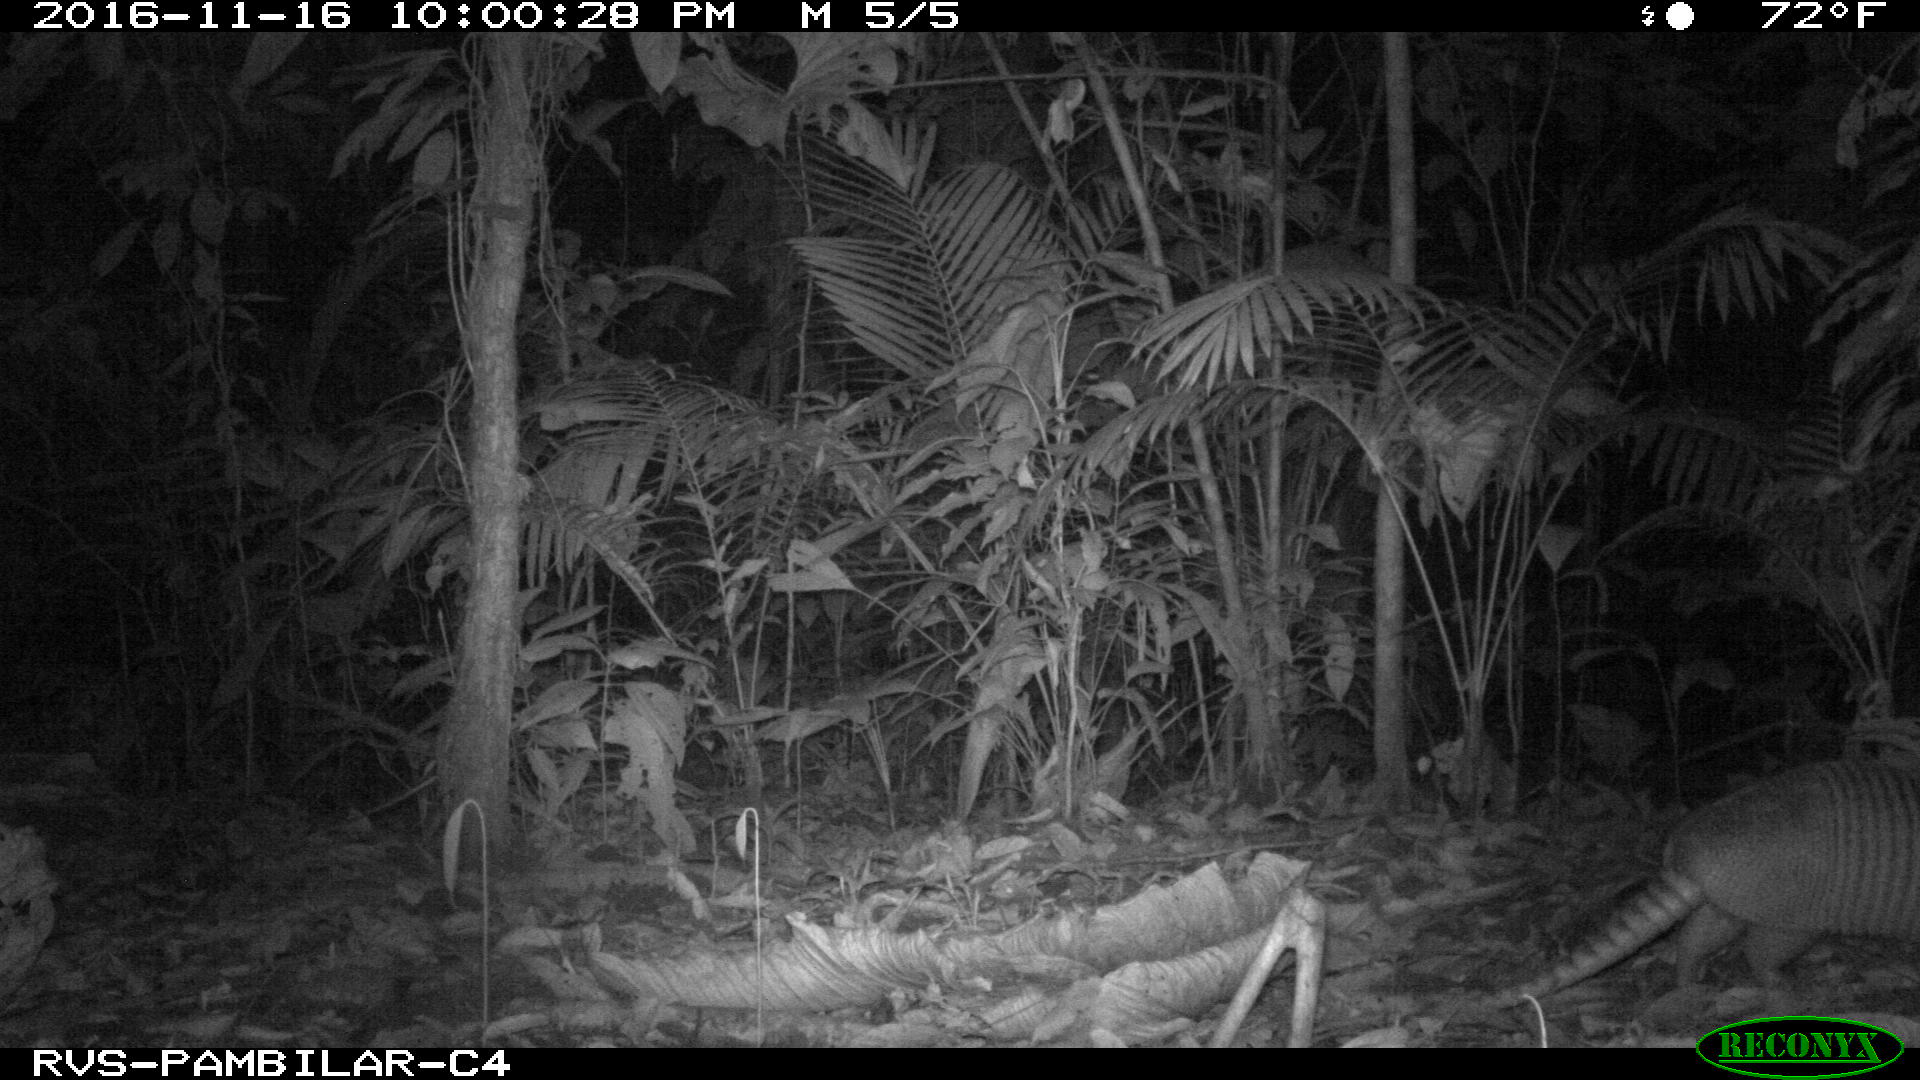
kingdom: Animalia
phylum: Chordata
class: Mammalia
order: Cingulata
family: Dasypodidae
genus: Dasypus
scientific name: Dasypus novemcinctus
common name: Nine-banded armadillo
